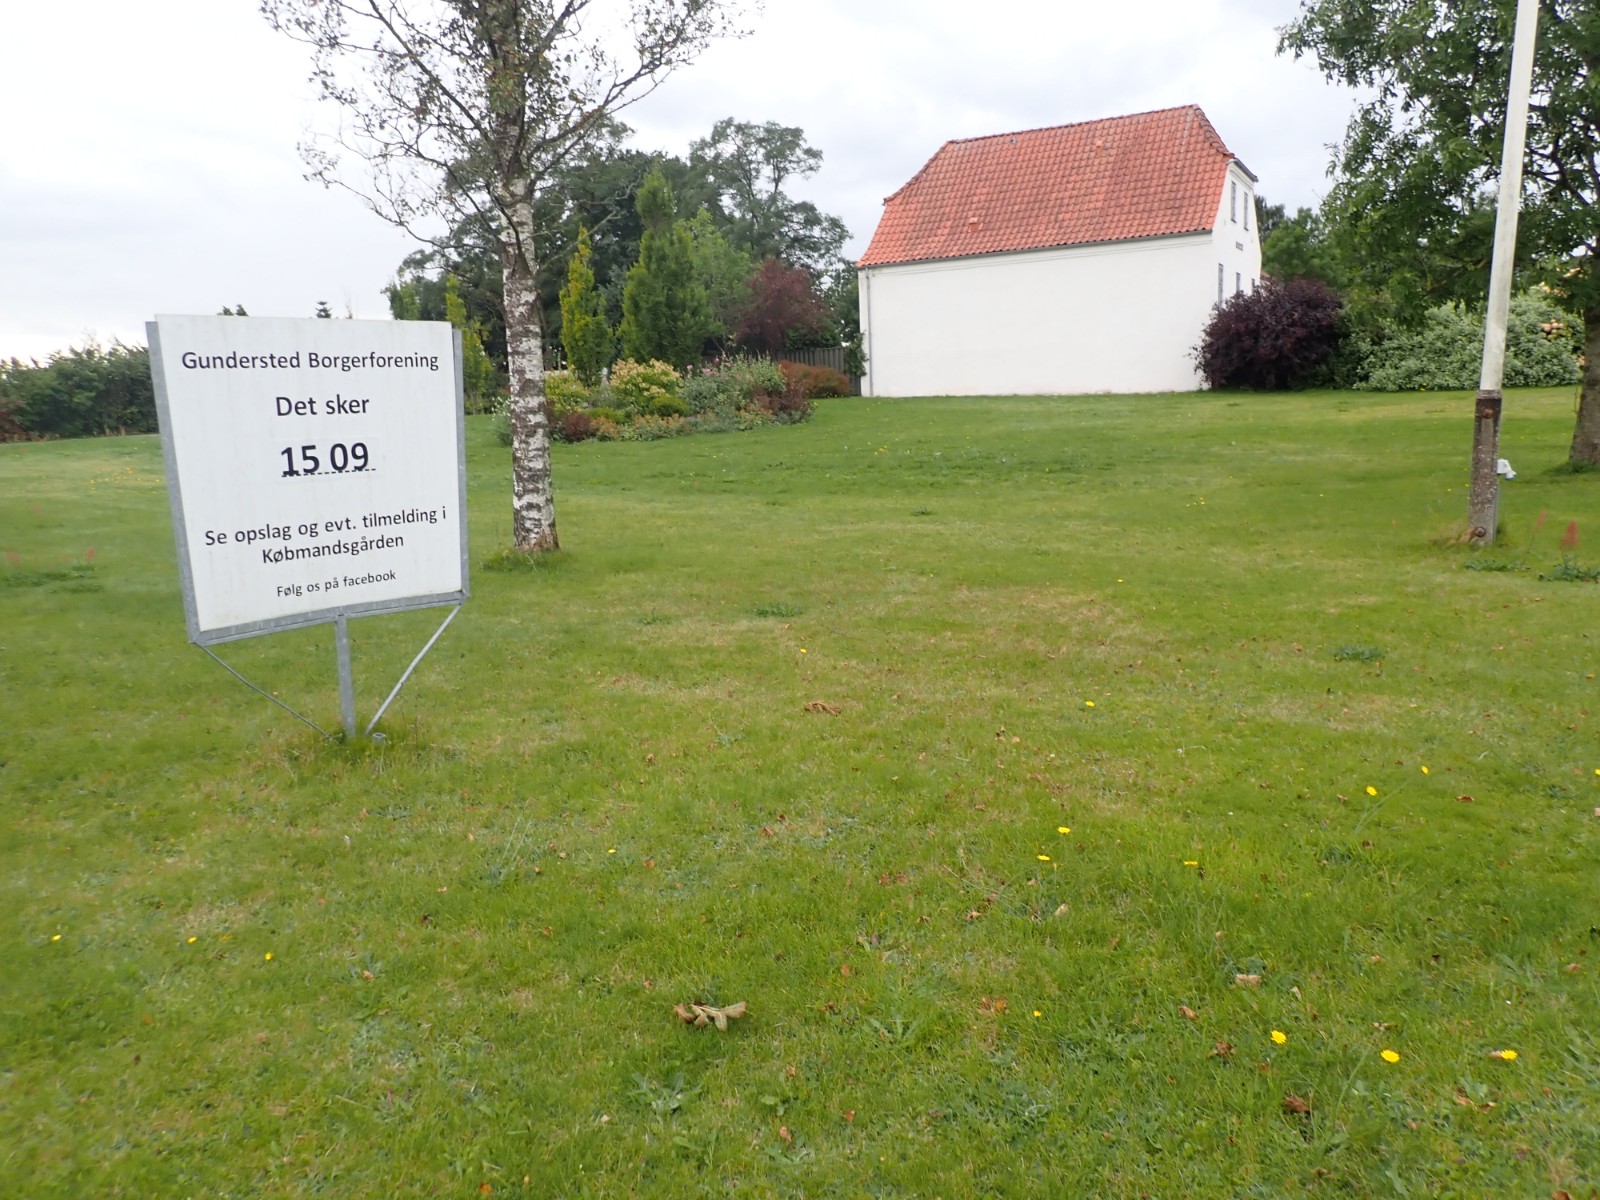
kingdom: Fungi
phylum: Basidiomycota
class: Agaricomycetes
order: Agaricales
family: Hygrophoraceae
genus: Gliophorus
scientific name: Gliophorus psittacinus
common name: papegøje-vokshat
